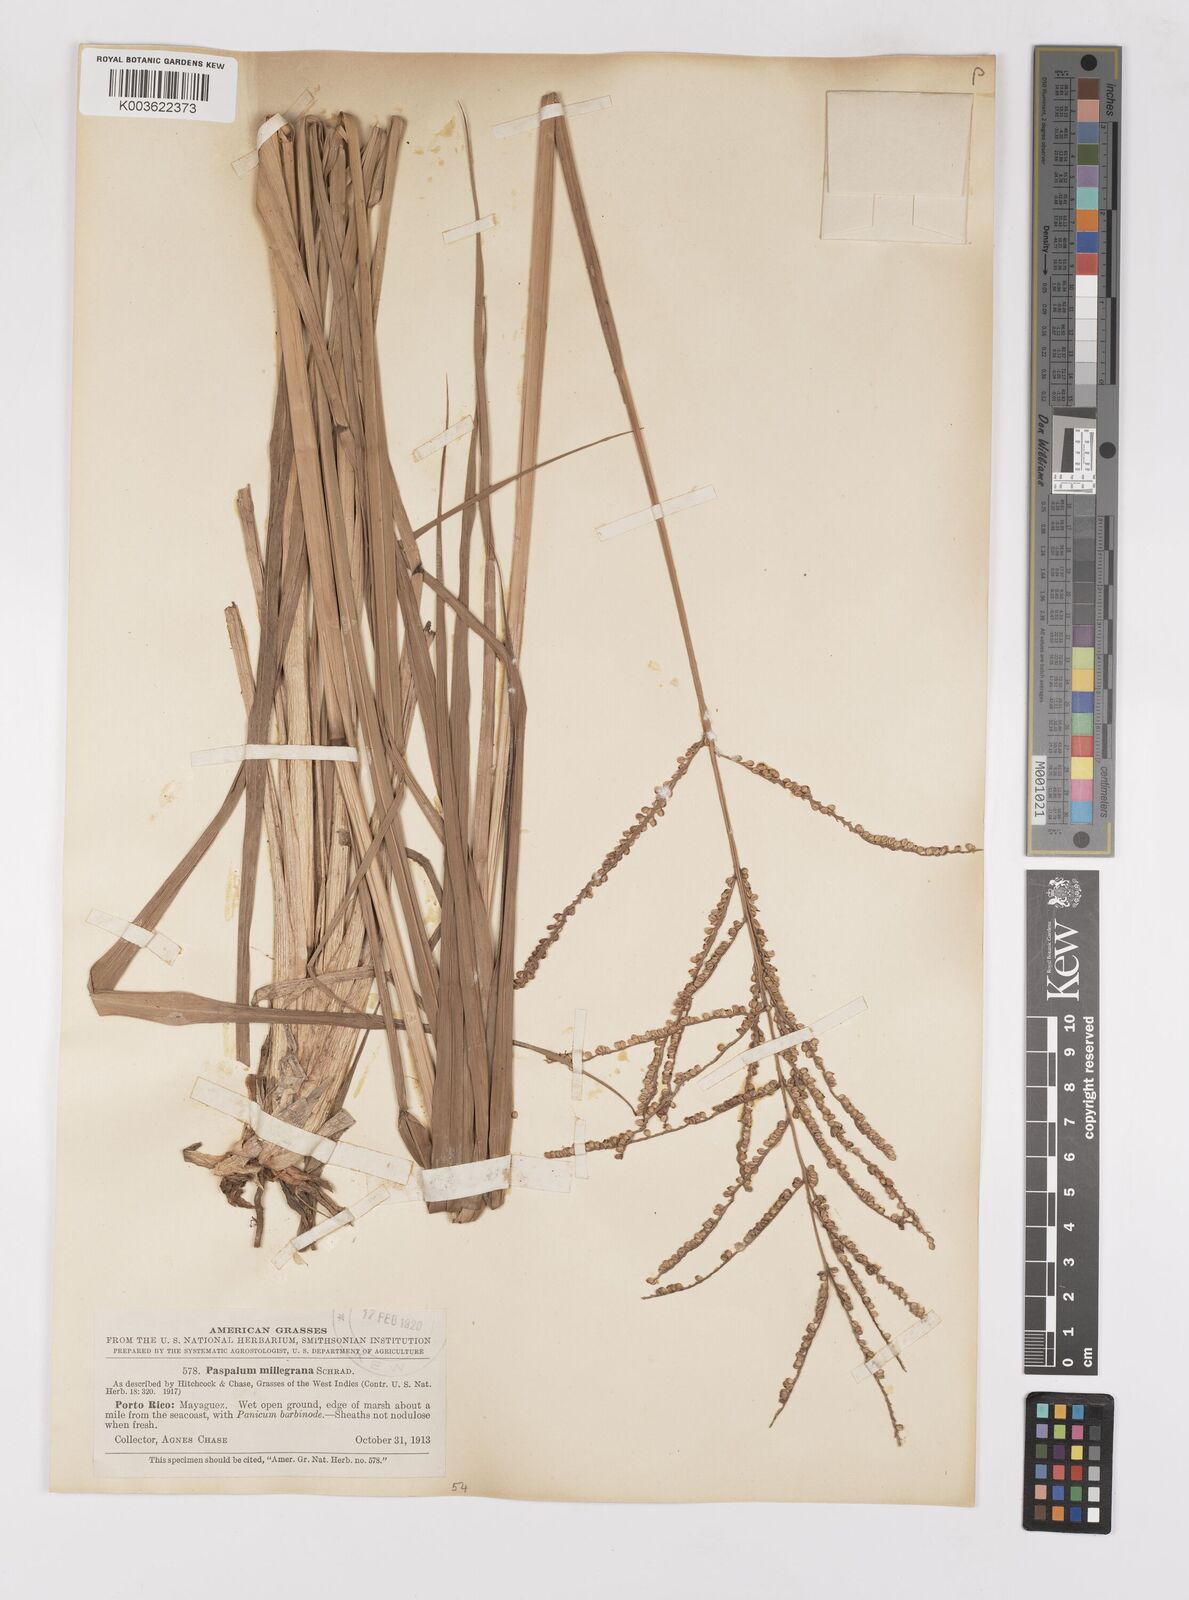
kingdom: Plantae
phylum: Tracheophyta
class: Liliopsida
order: Poales
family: Poaceae
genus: Paspalum
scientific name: Paspalum millegranum
